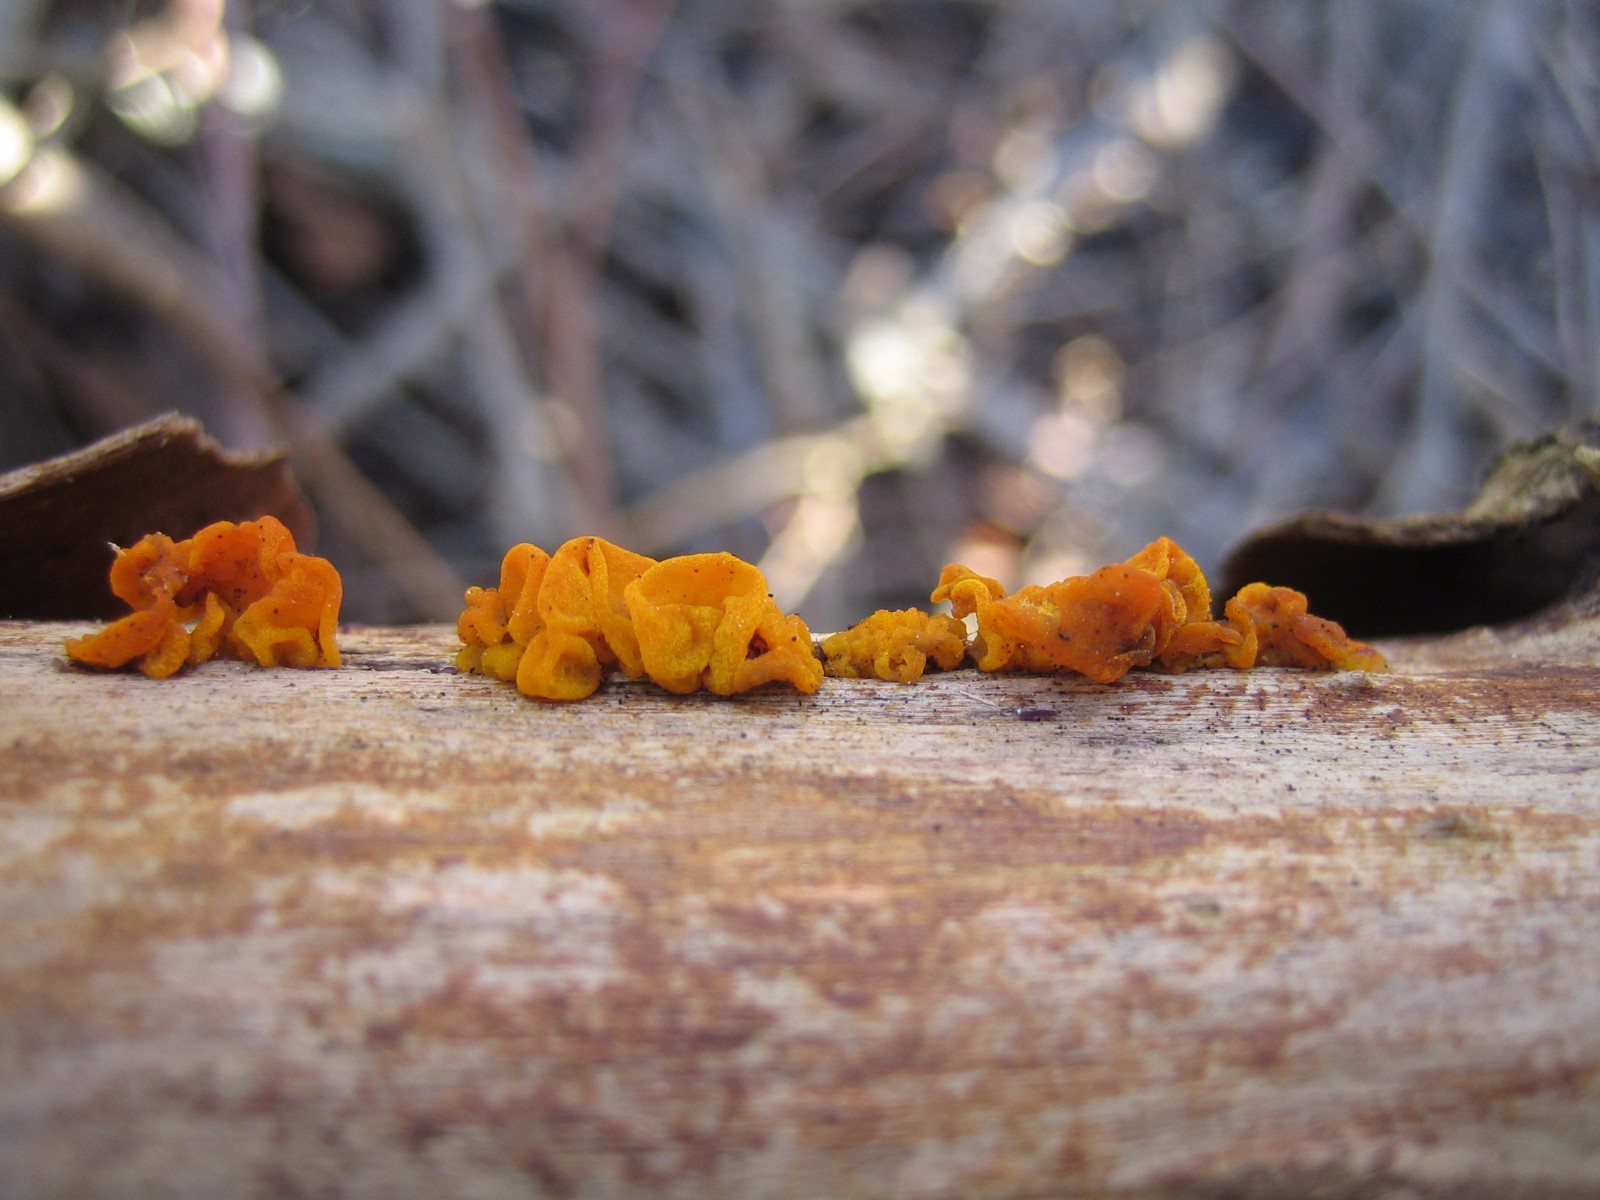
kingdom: Fungi
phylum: Basidiomycota
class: Tremellomycetes
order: Tremellales
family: Tremellaceae
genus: Tremella
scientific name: Tremella mesenterica
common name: gul bævresvamp
